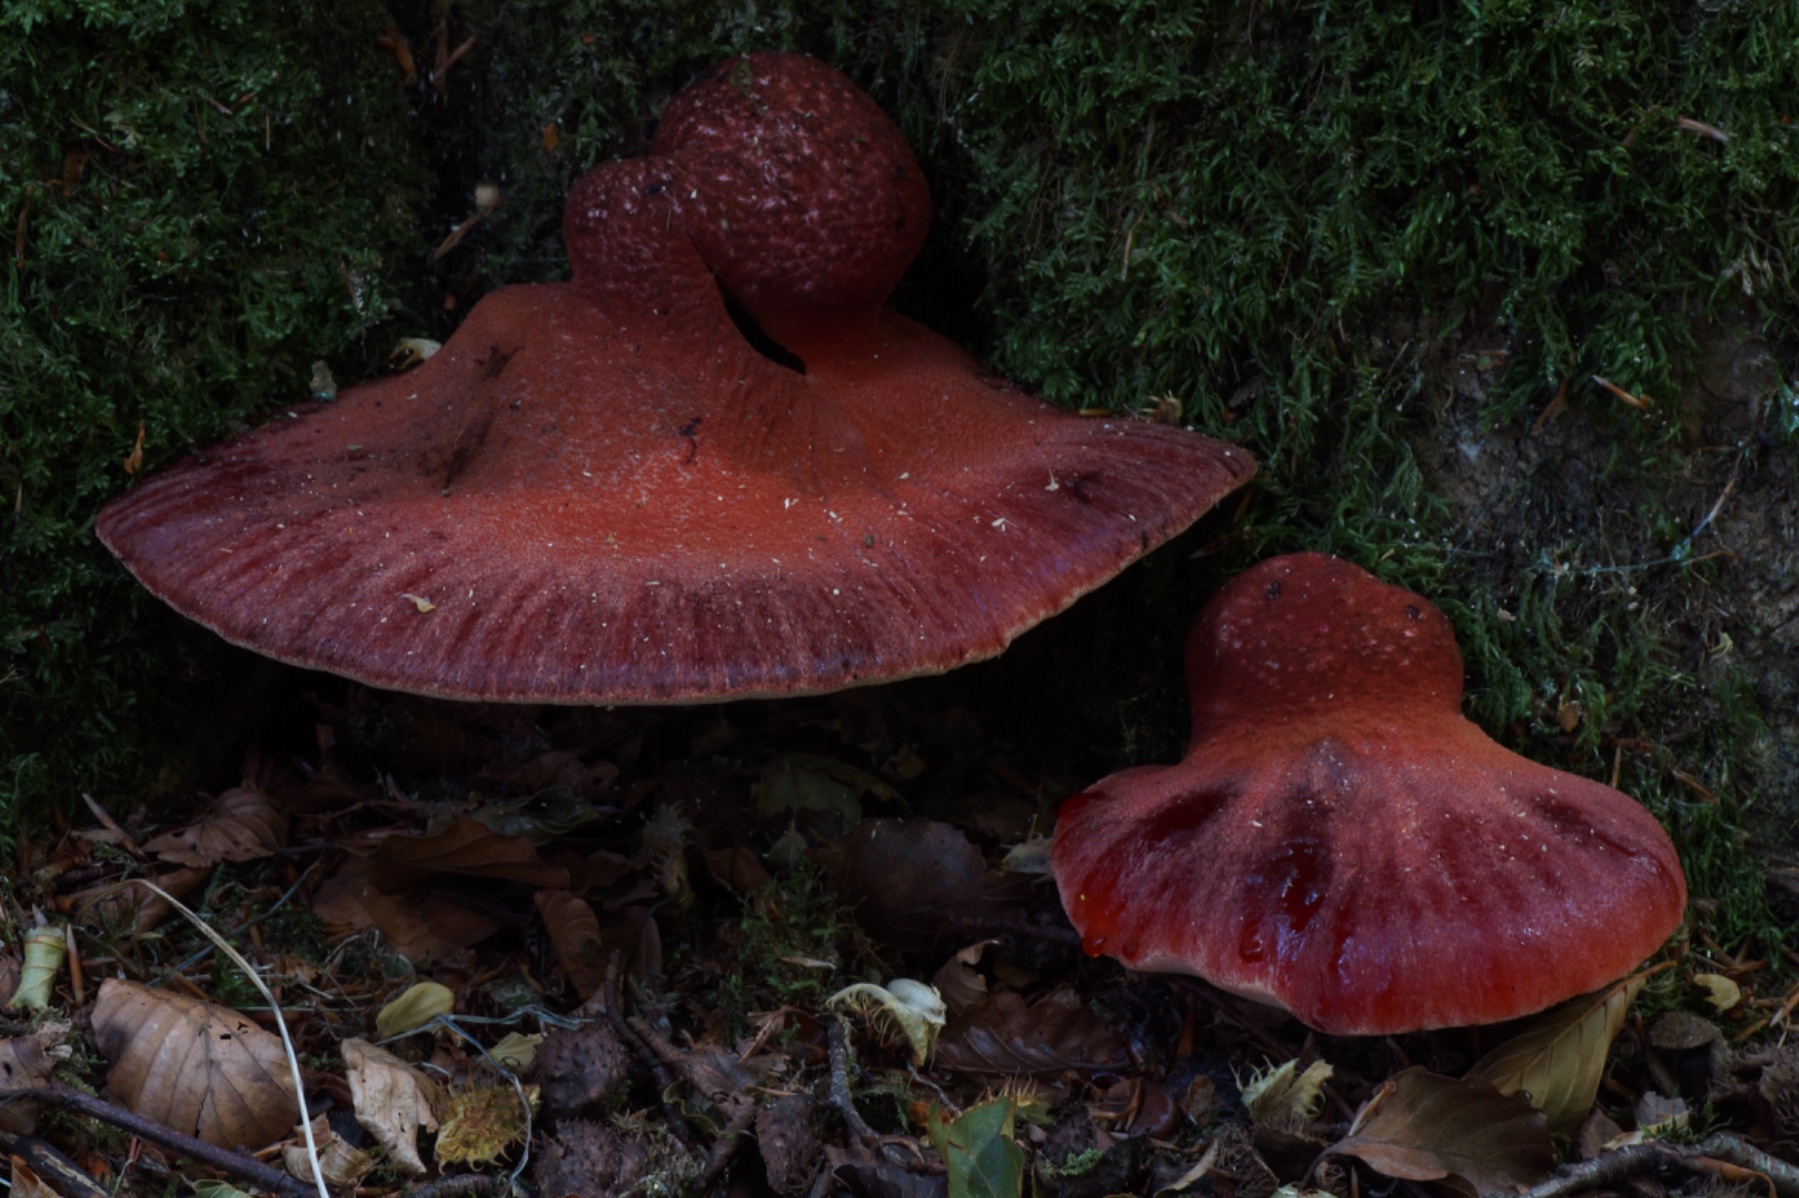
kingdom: Fungi
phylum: Basidiomycota
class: Agaricomycetes
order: Agaricales
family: Fistulinaceae
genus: Fistulina
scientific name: Fistulina hepatica
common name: oksetunge
